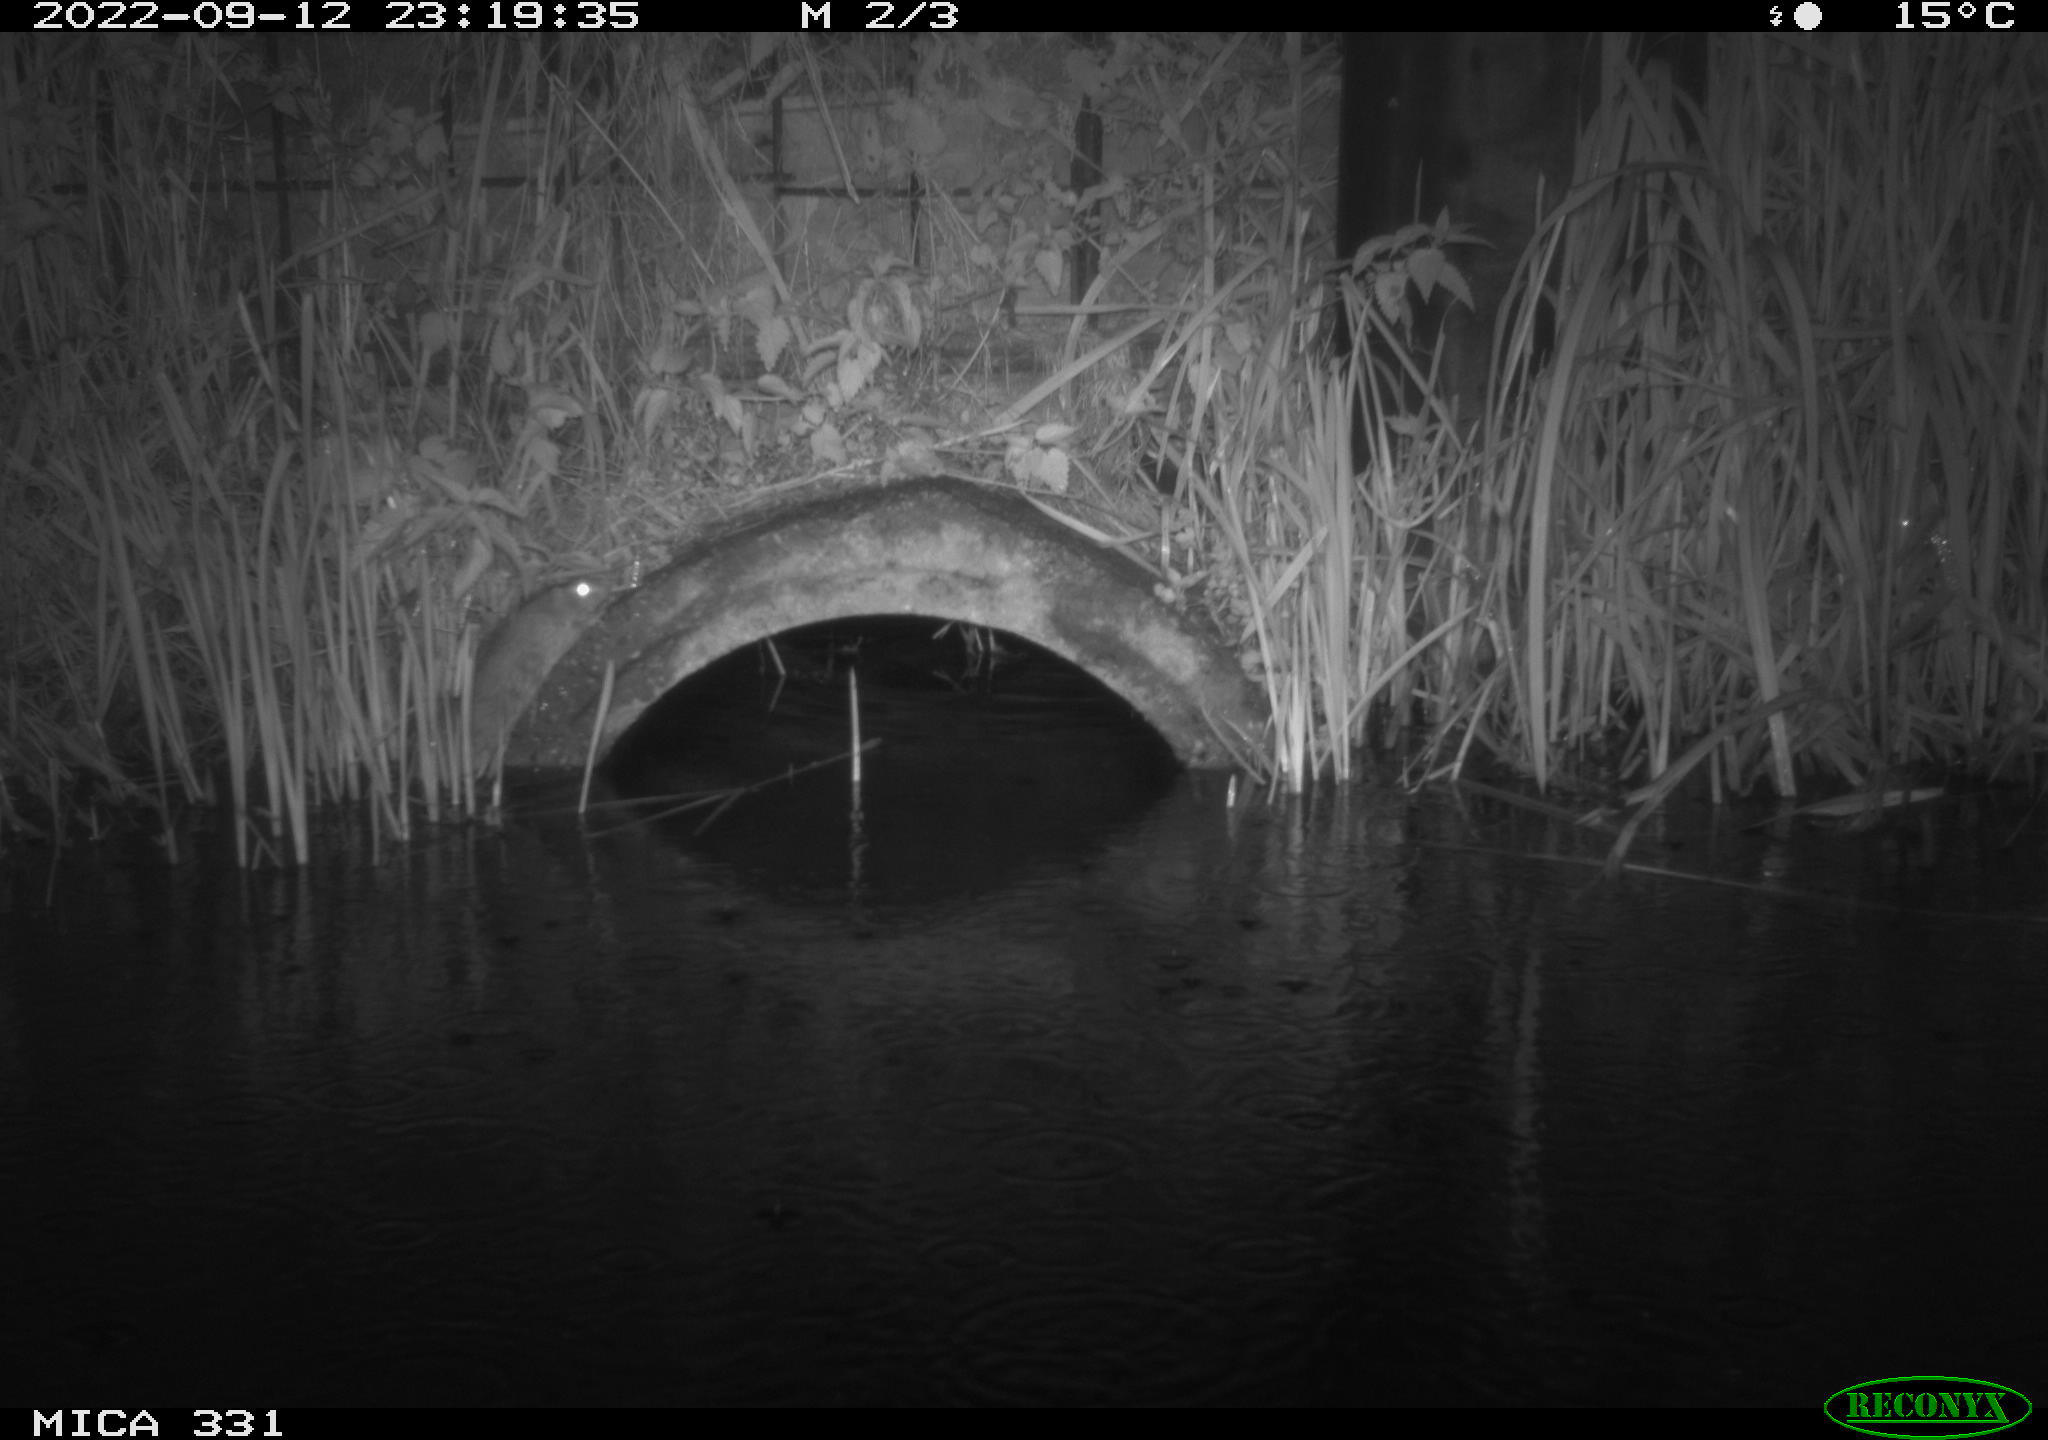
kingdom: Animalia
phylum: Chordata
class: Mammalia
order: Rodentia
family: Muridae
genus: Rattus
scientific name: Rattus norvegicus
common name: Brown rat
